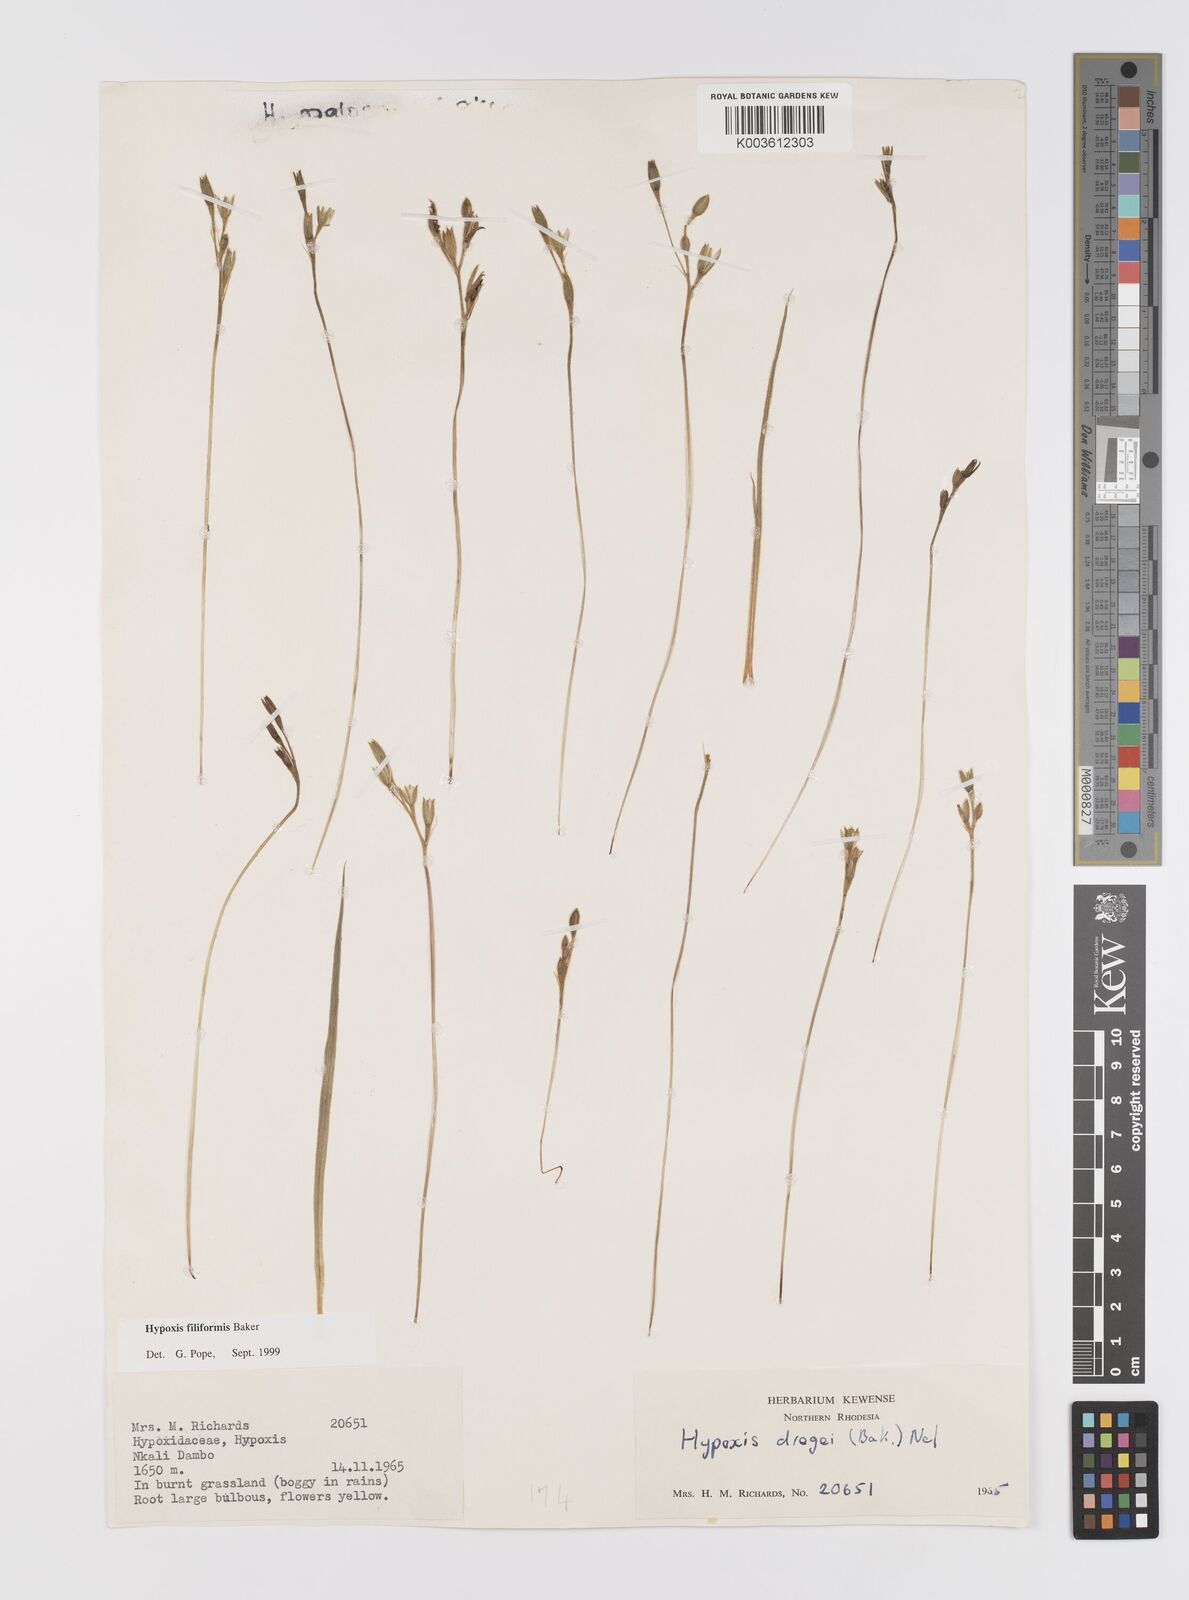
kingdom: Plantae
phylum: Tracheophyta
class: Liliopsida
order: Asparagales
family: Hypoxidaceae
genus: Hypoxis
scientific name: Hypoxis filiformis
